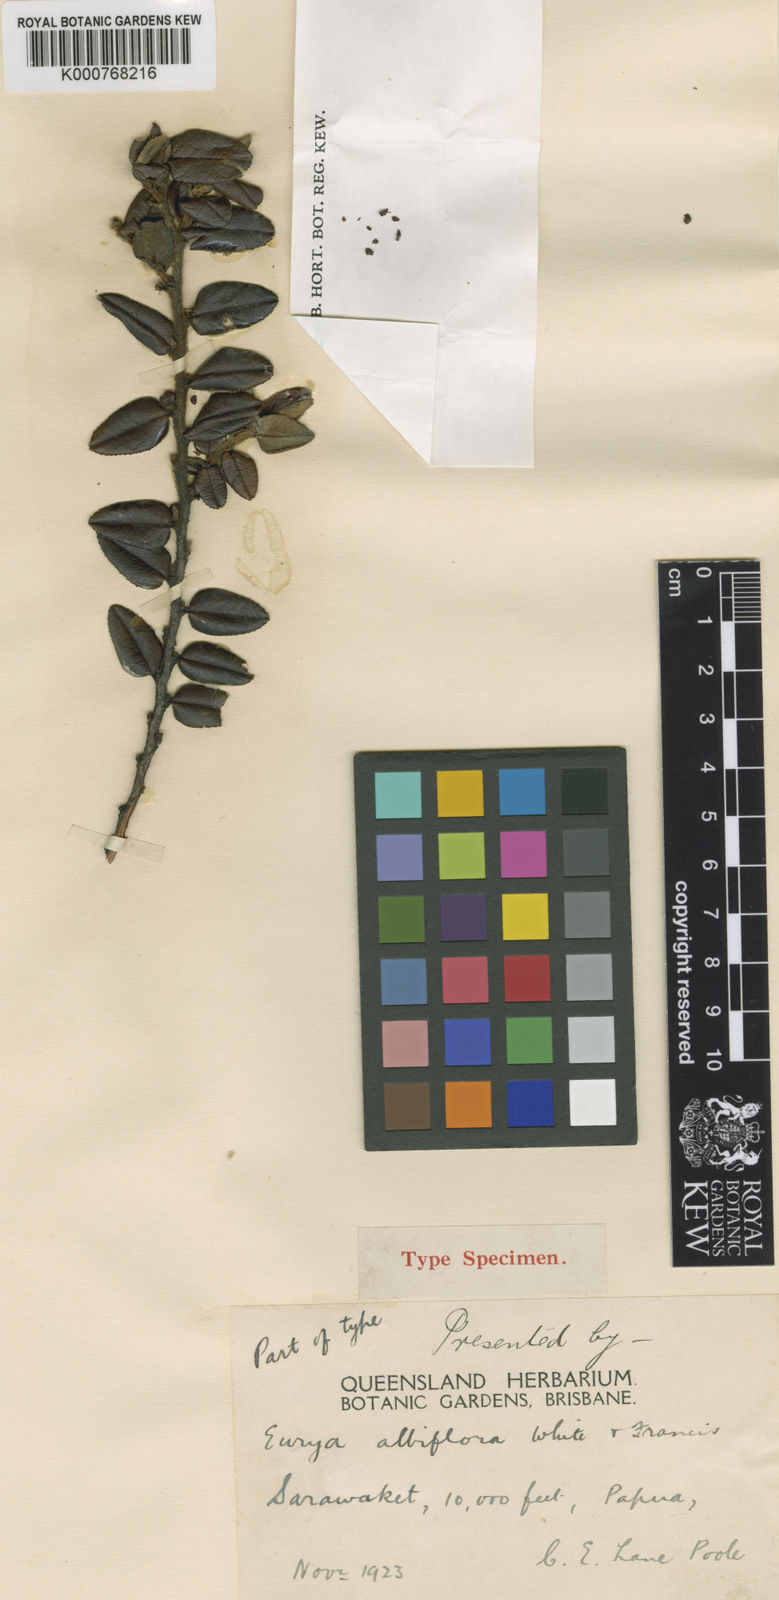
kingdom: Plantae
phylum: Tracheophyta
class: Magnoliopsida
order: Ericales
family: Pentaphylacaceae
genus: Eurya
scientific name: Eurya albiflora
